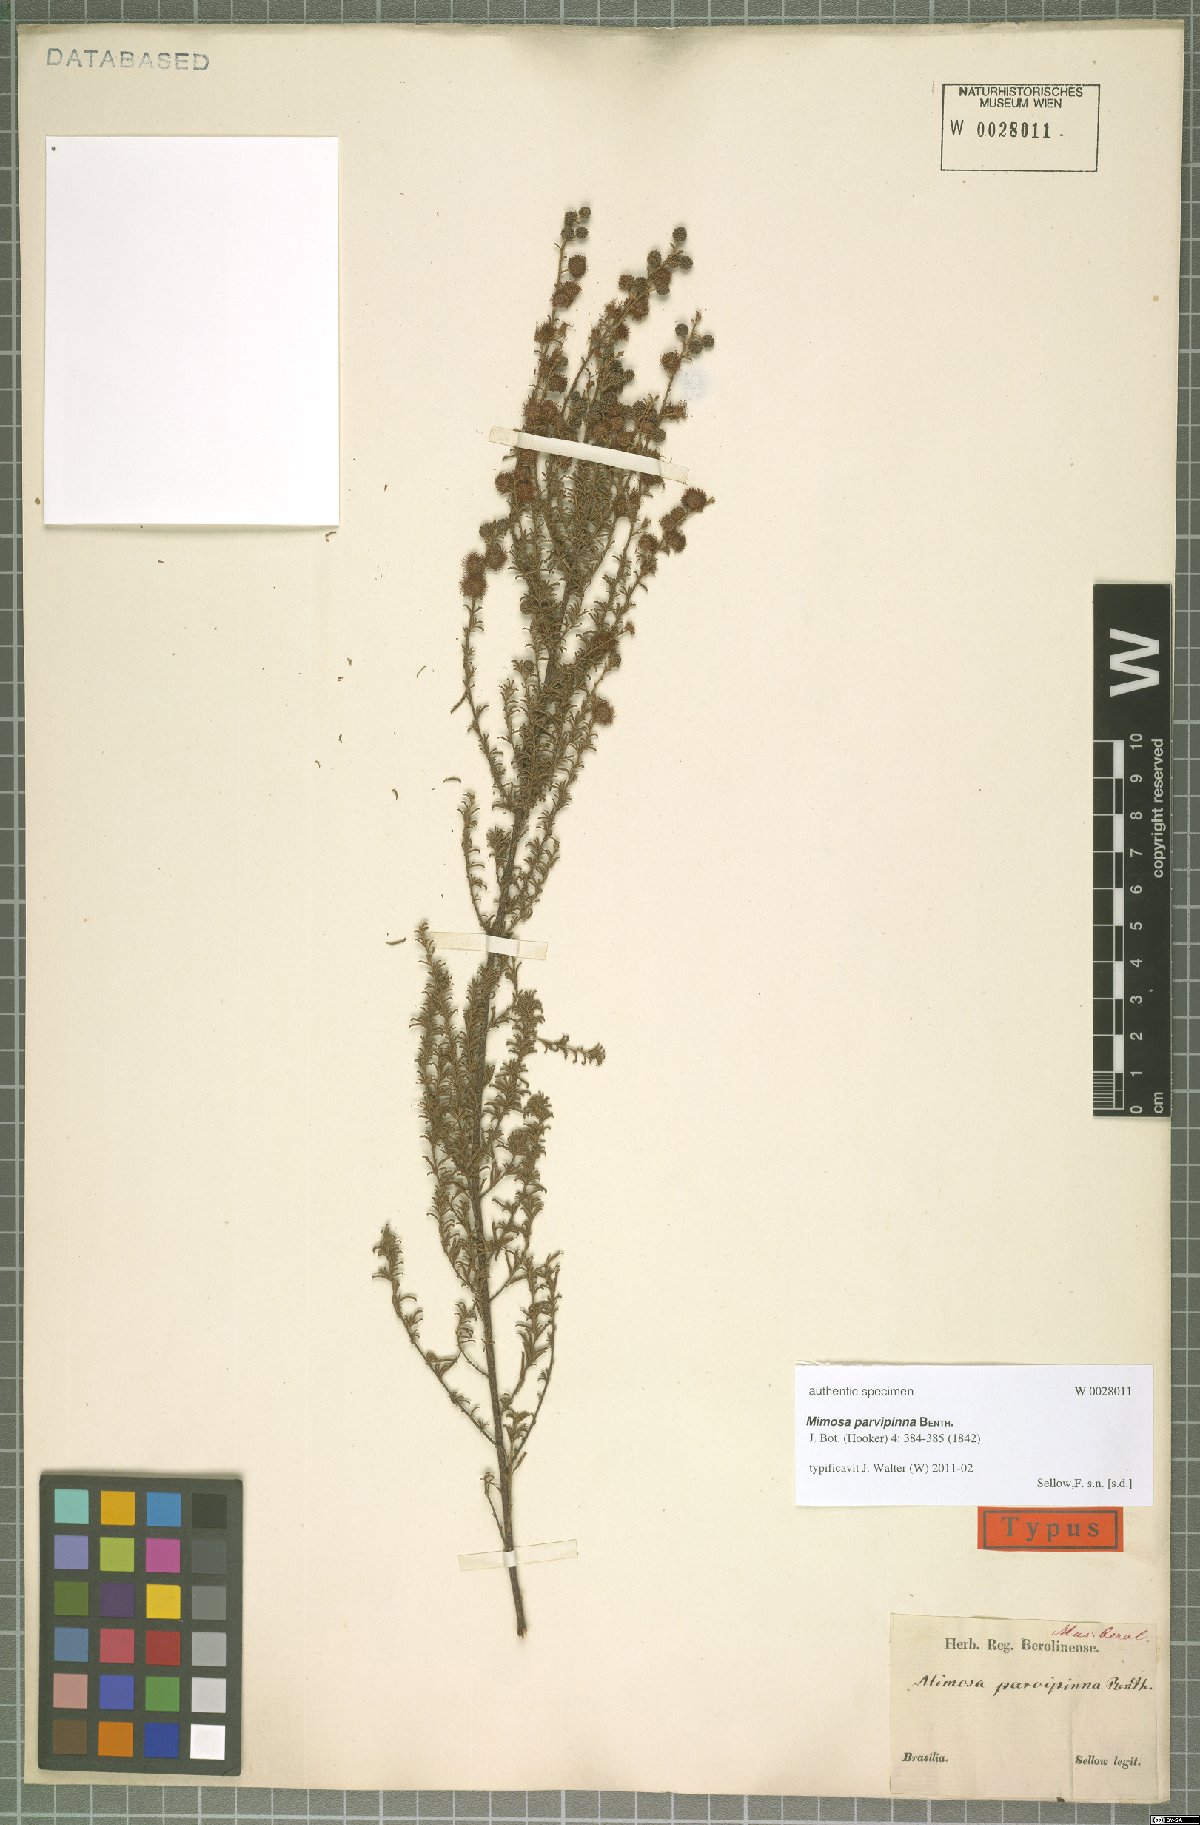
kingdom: Plantae
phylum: Tracheophyta
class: Magnoliopsida
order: Fabales
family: Fabaceae
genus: Mimosa
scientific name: Mimosa parvipinna
